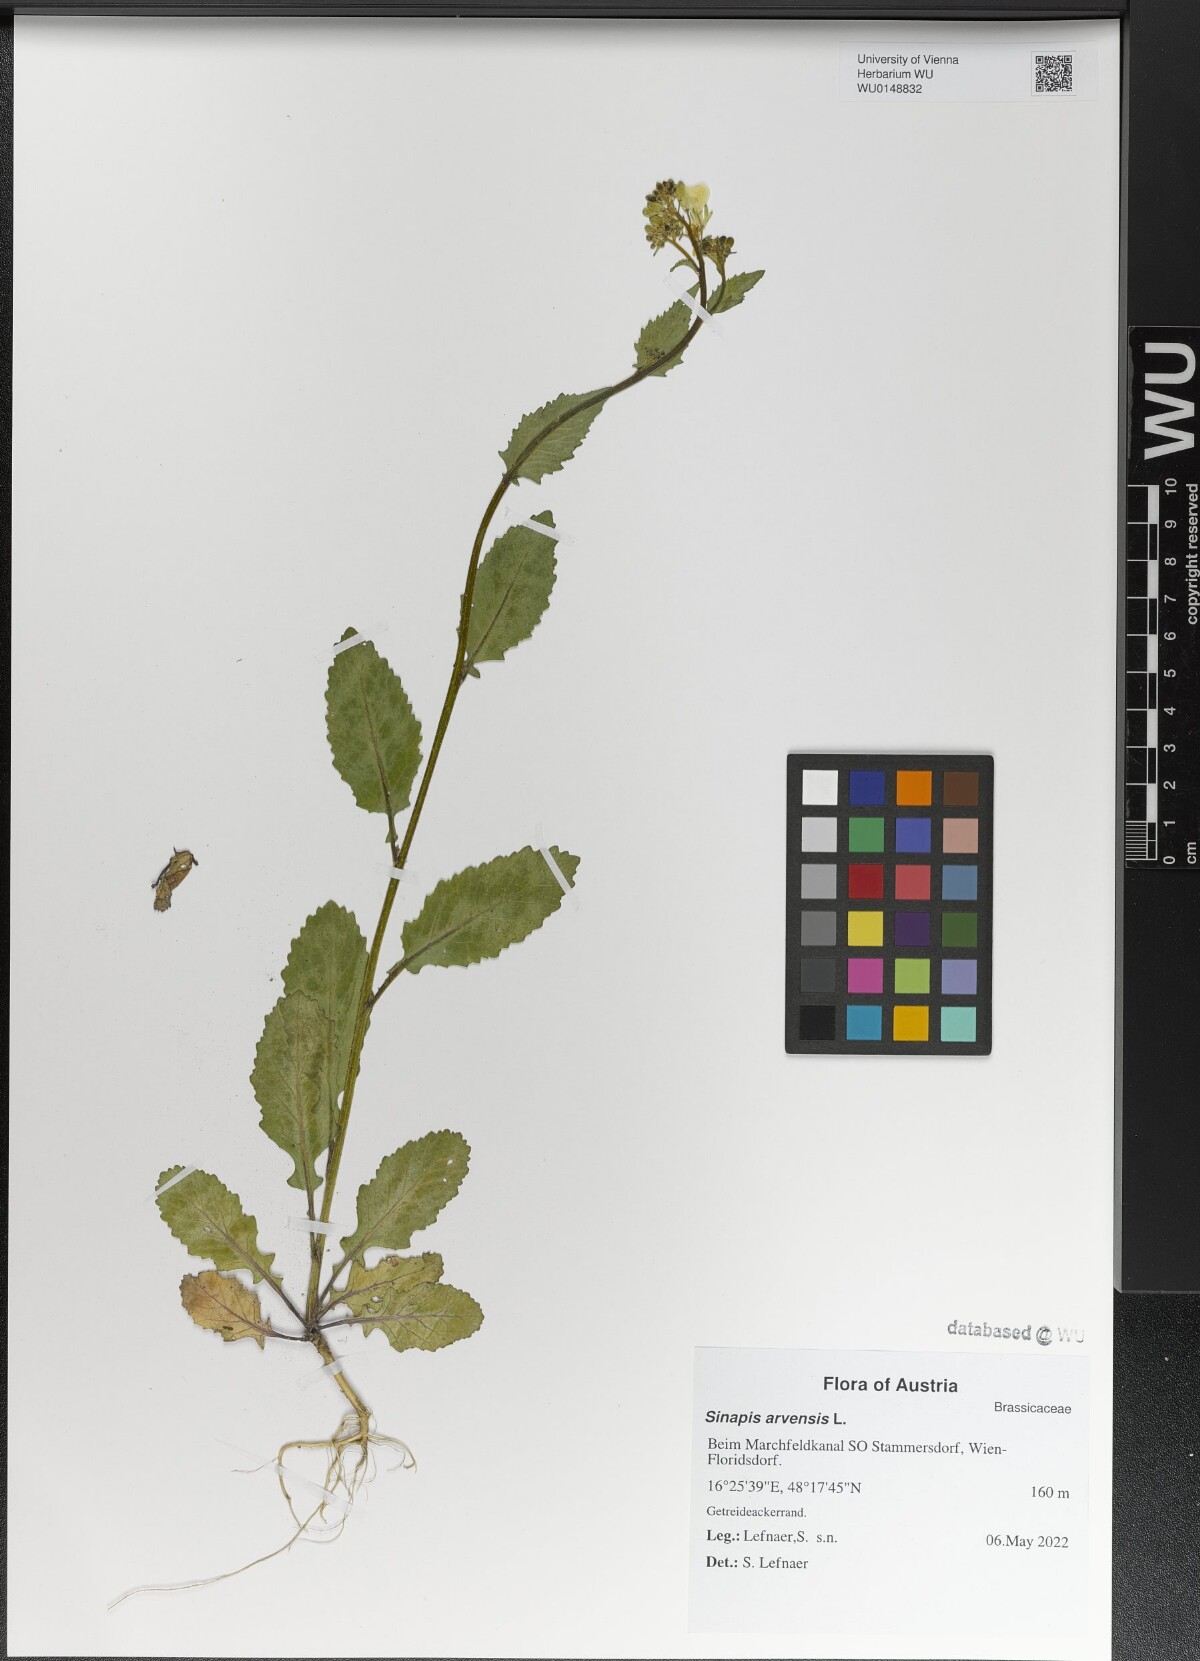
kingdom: Plantae
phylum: Tracheophyta
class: Magnoliopsida
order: Brassicales
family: Brassicaceae
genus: Sinapis
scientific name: Sinapis arvensis
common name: Charlock
